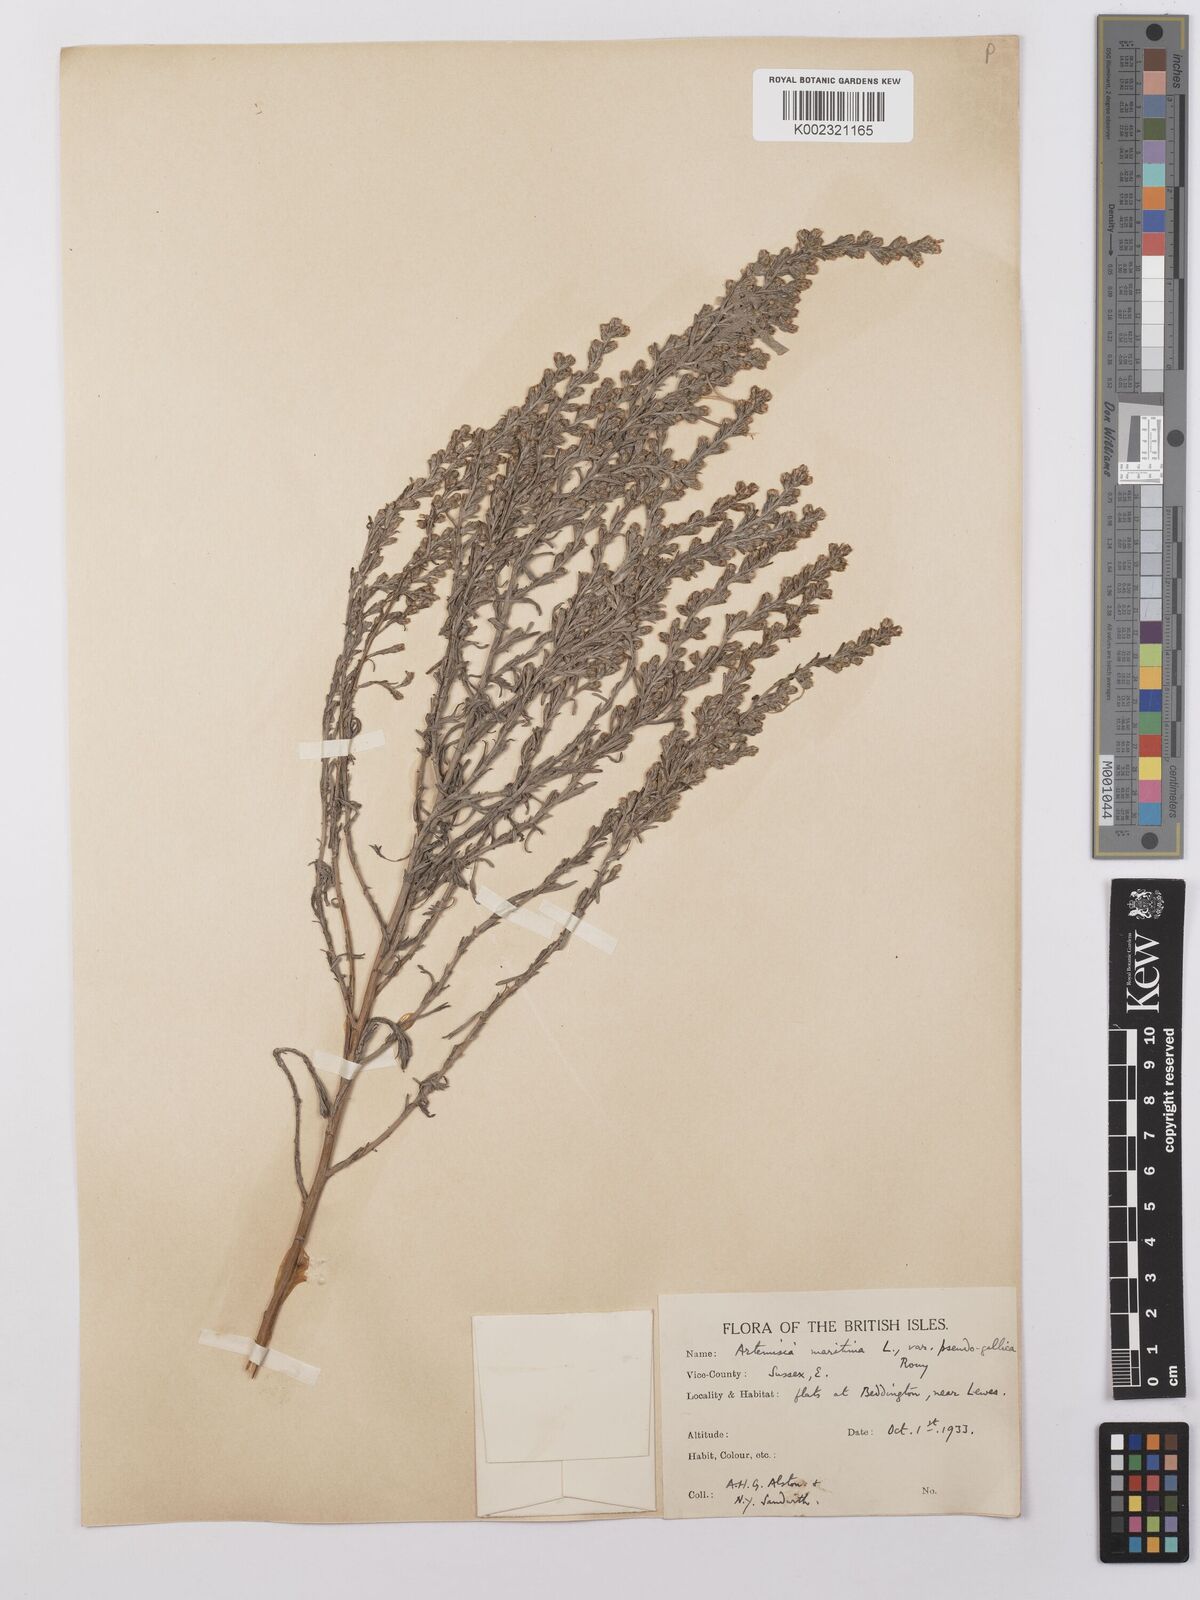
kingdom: Plantae
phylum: Tracheophyta
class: Magnoliopsida
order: Asterales
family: Asteraceae
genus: Artemisia
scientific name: Artemisia maritima
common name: Wormseed
